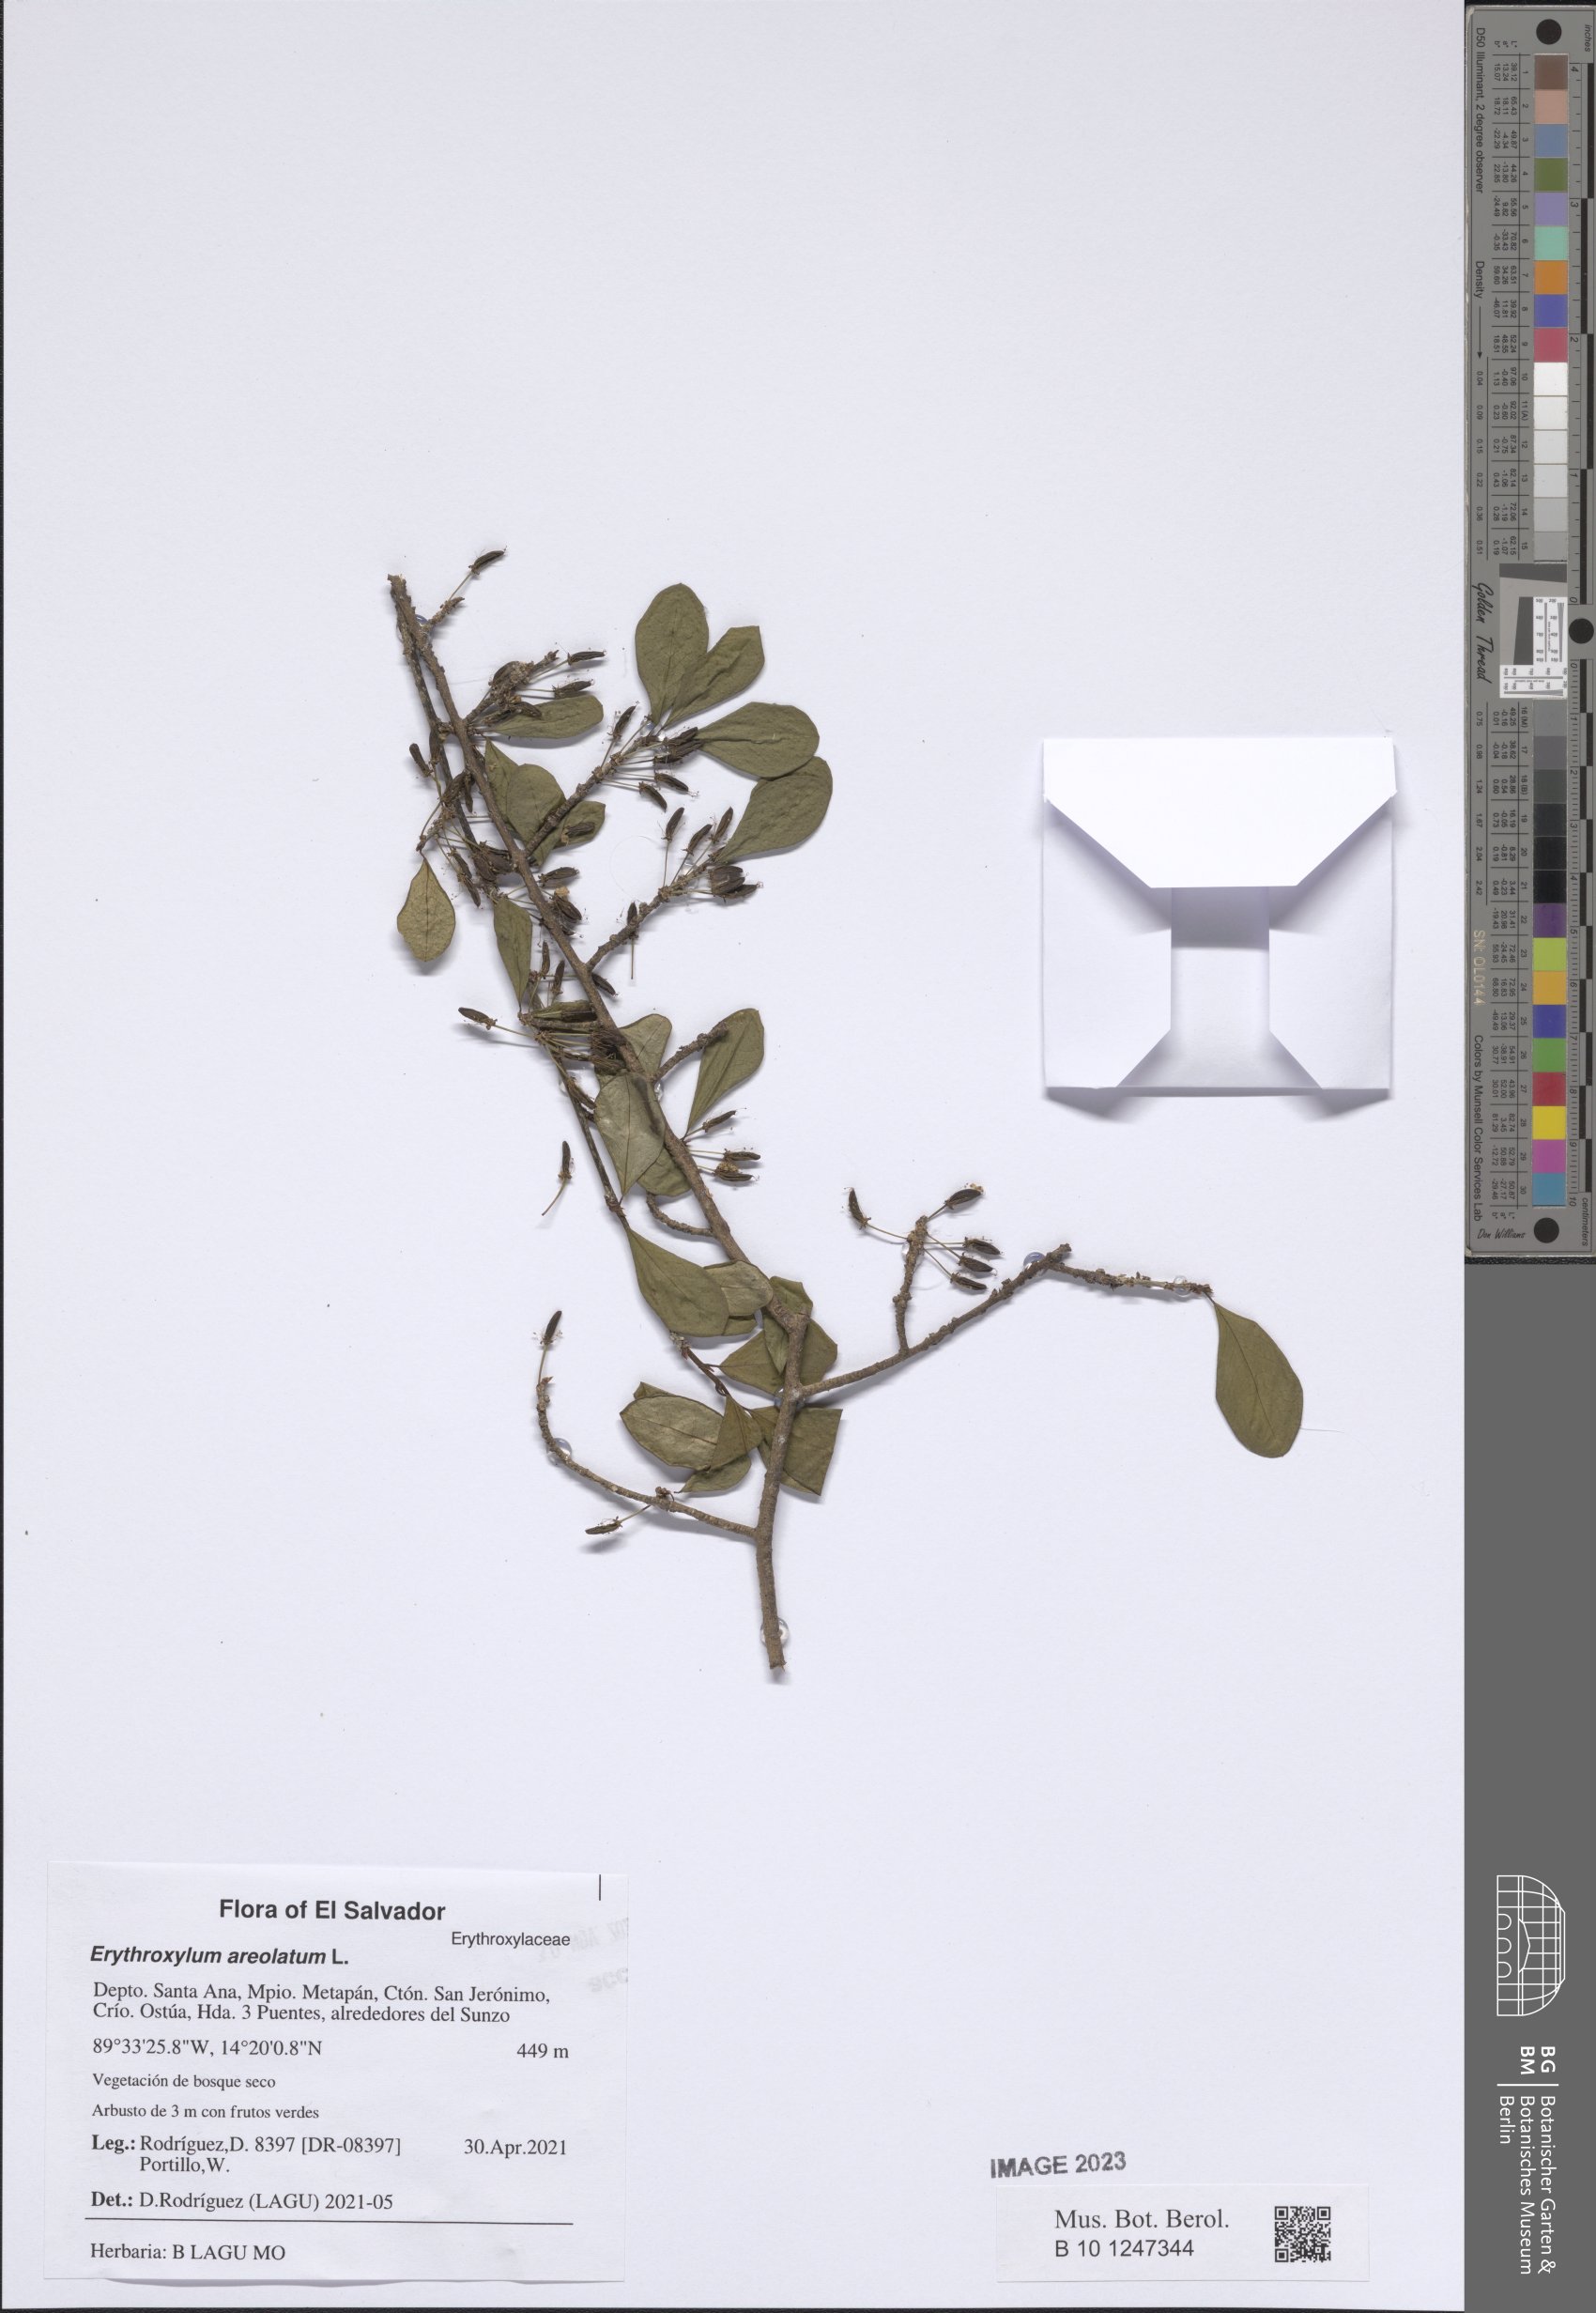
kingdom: Plantae
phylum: Tracheophyta
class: Magnoliopsida
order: Malpighiales
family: Erythroxylaceae
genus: Erythroxylum
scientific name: Erythroxylum areolatum
